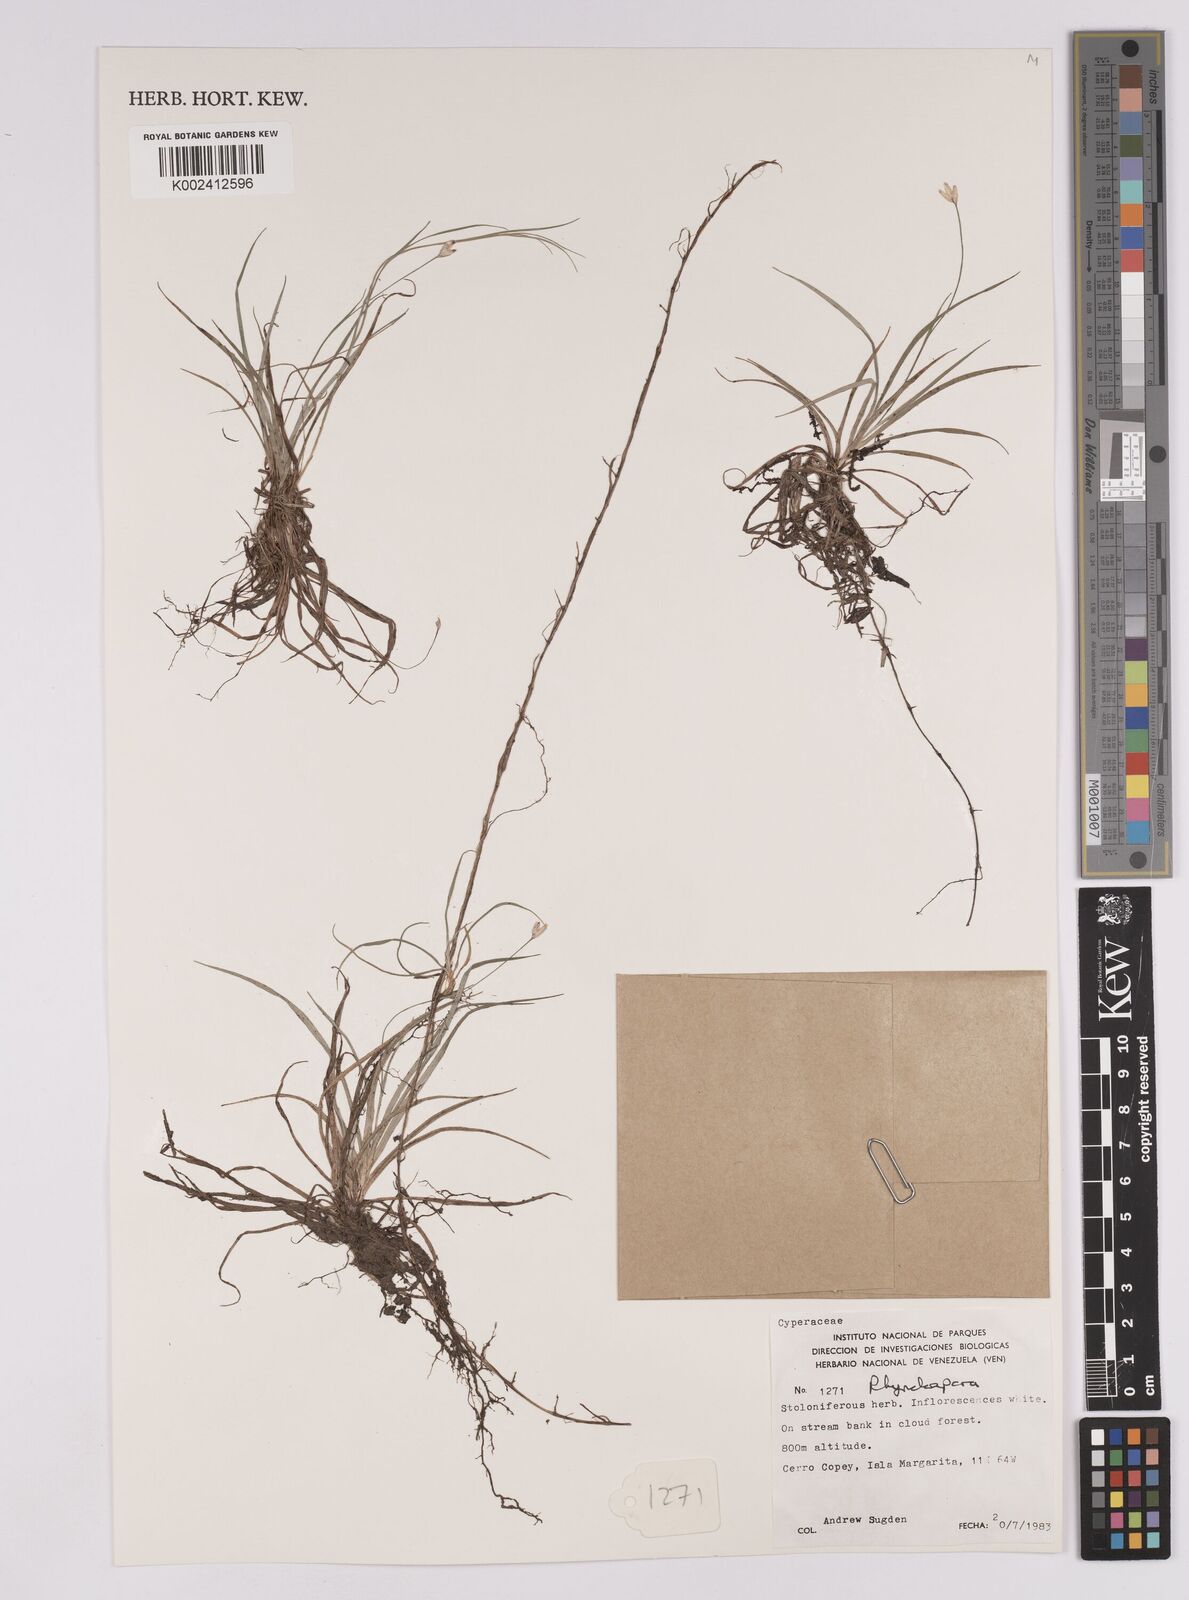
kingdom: Plantae
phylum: Tracheophyta
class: Liliopsida
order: Poales
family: Cyperaceae
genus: Rhynchospora
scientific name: Rhynchospora
